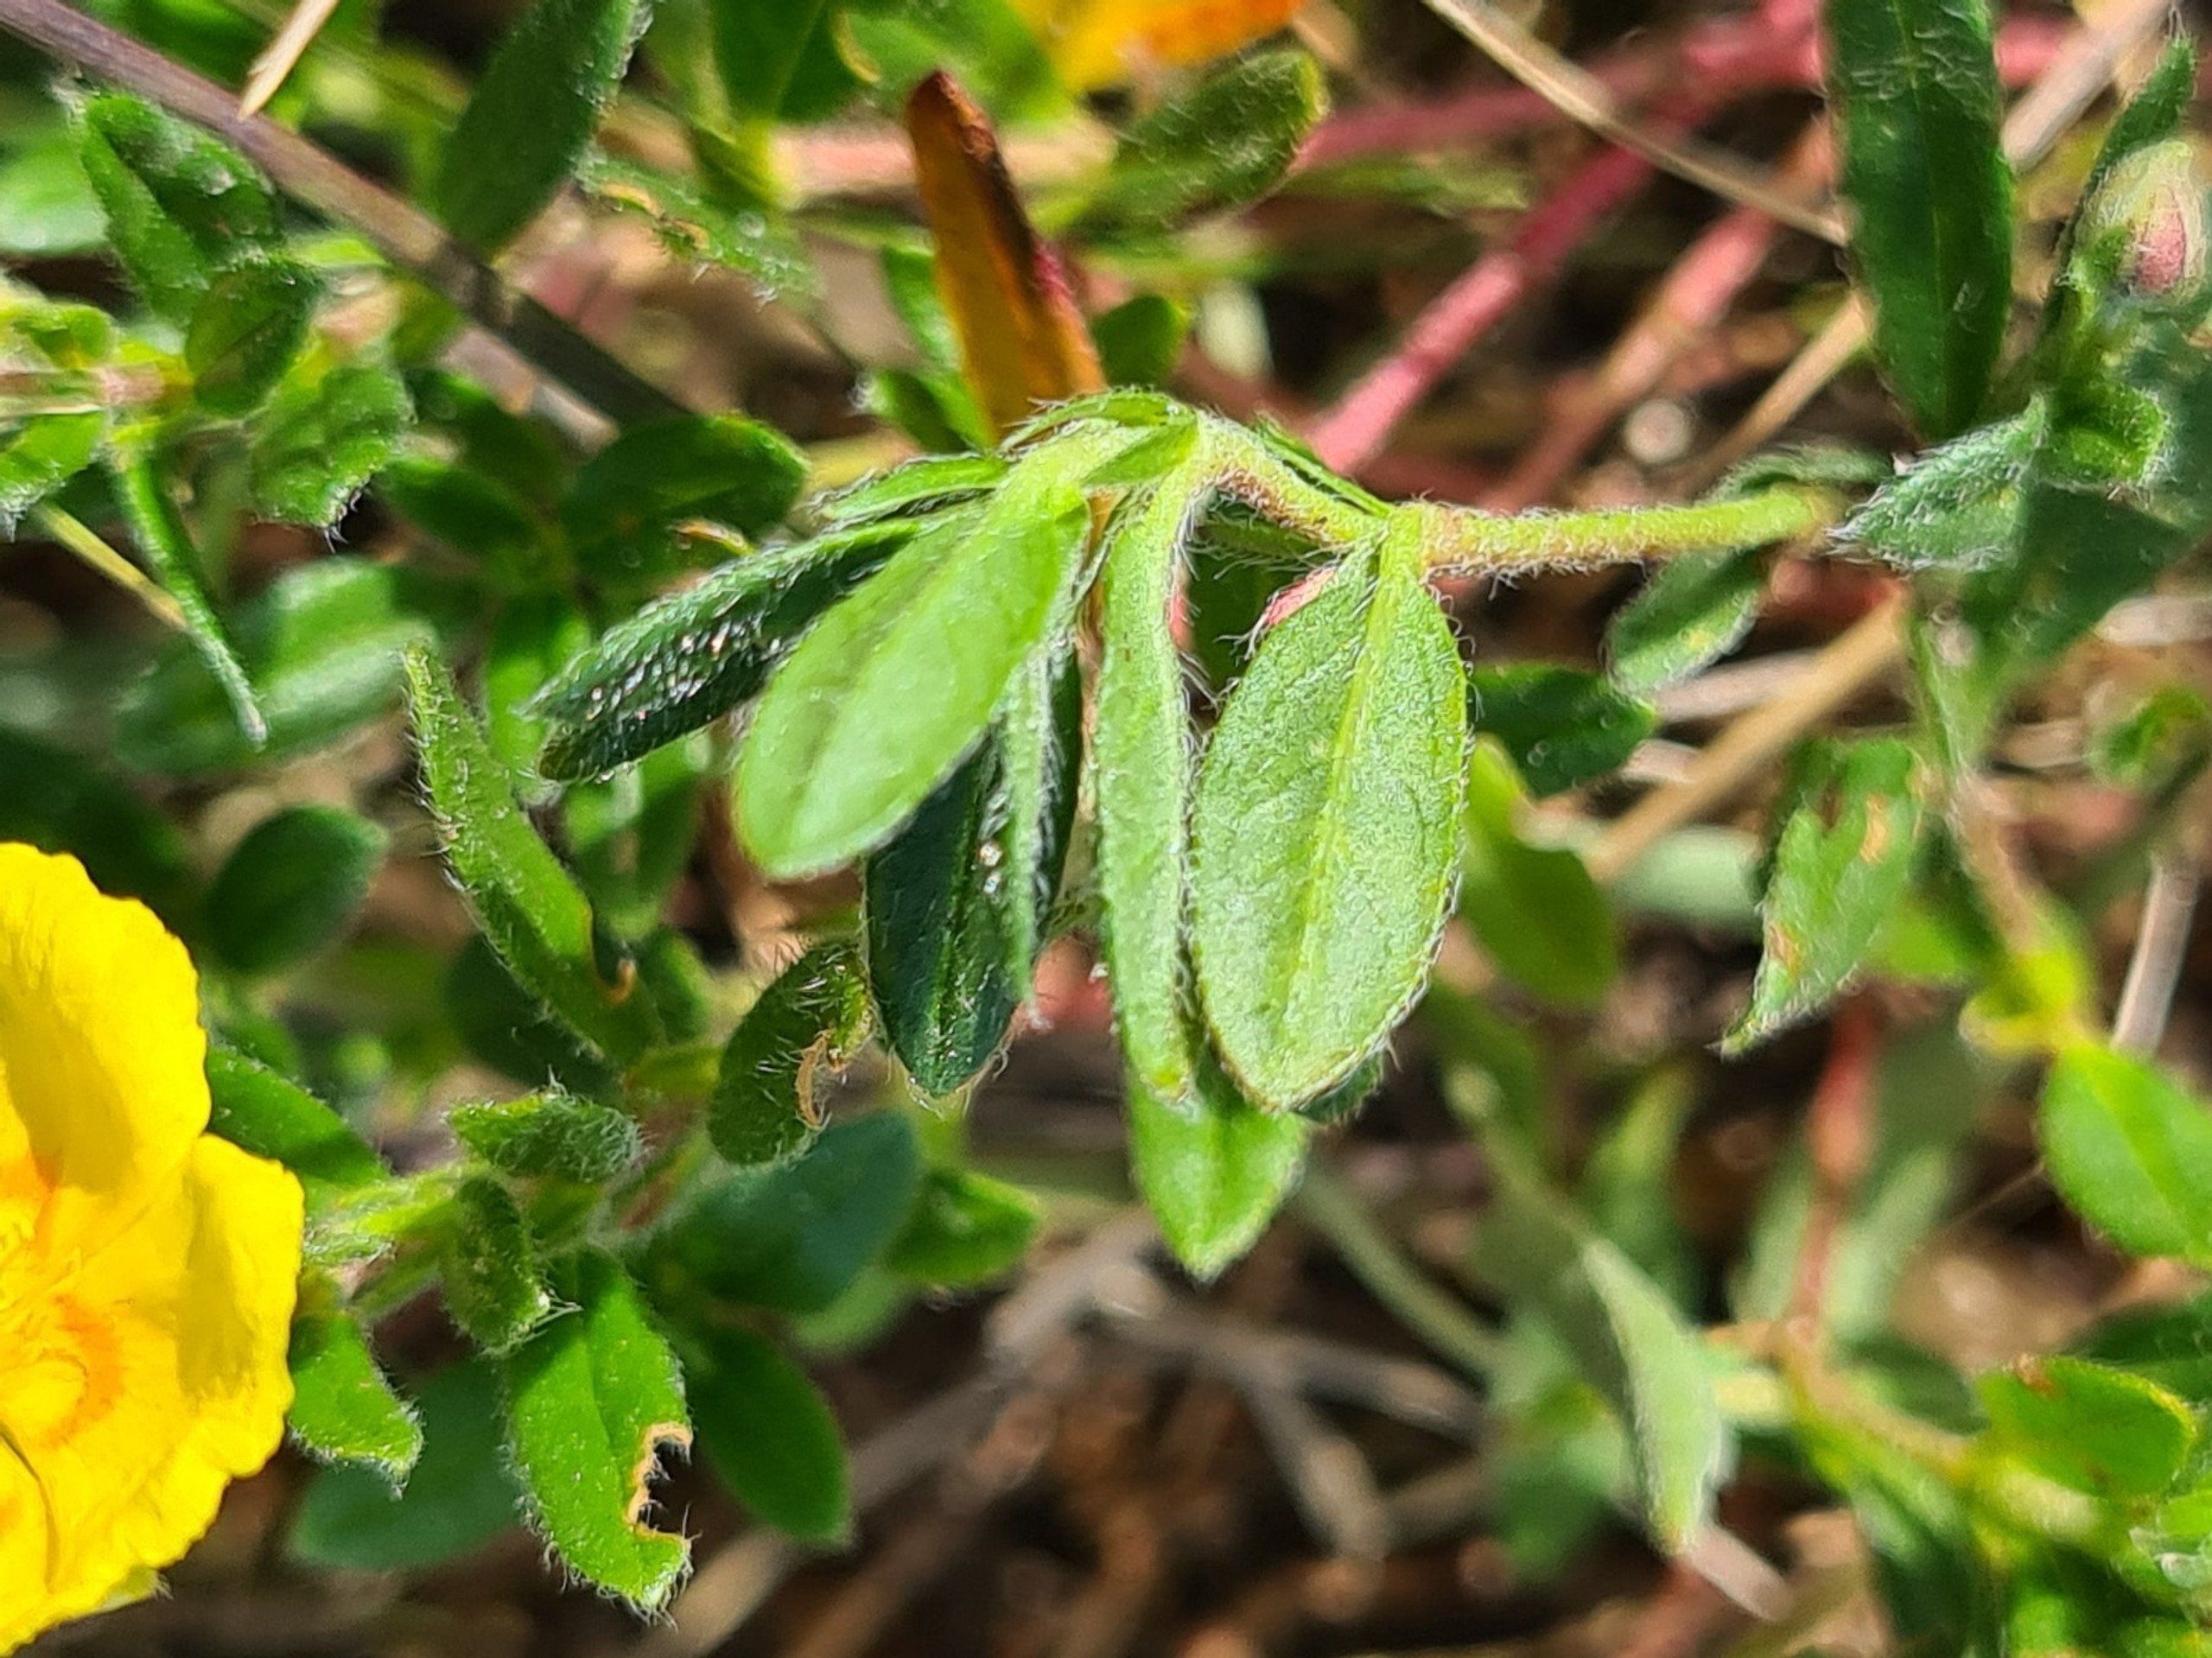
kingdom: Plantae
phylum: Tracheophyta
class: Magnoliopsida
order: Malvales
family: Cistaceae
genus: Helianthemum
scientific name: Helianthemum nummularium
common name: Bakke-soløje
